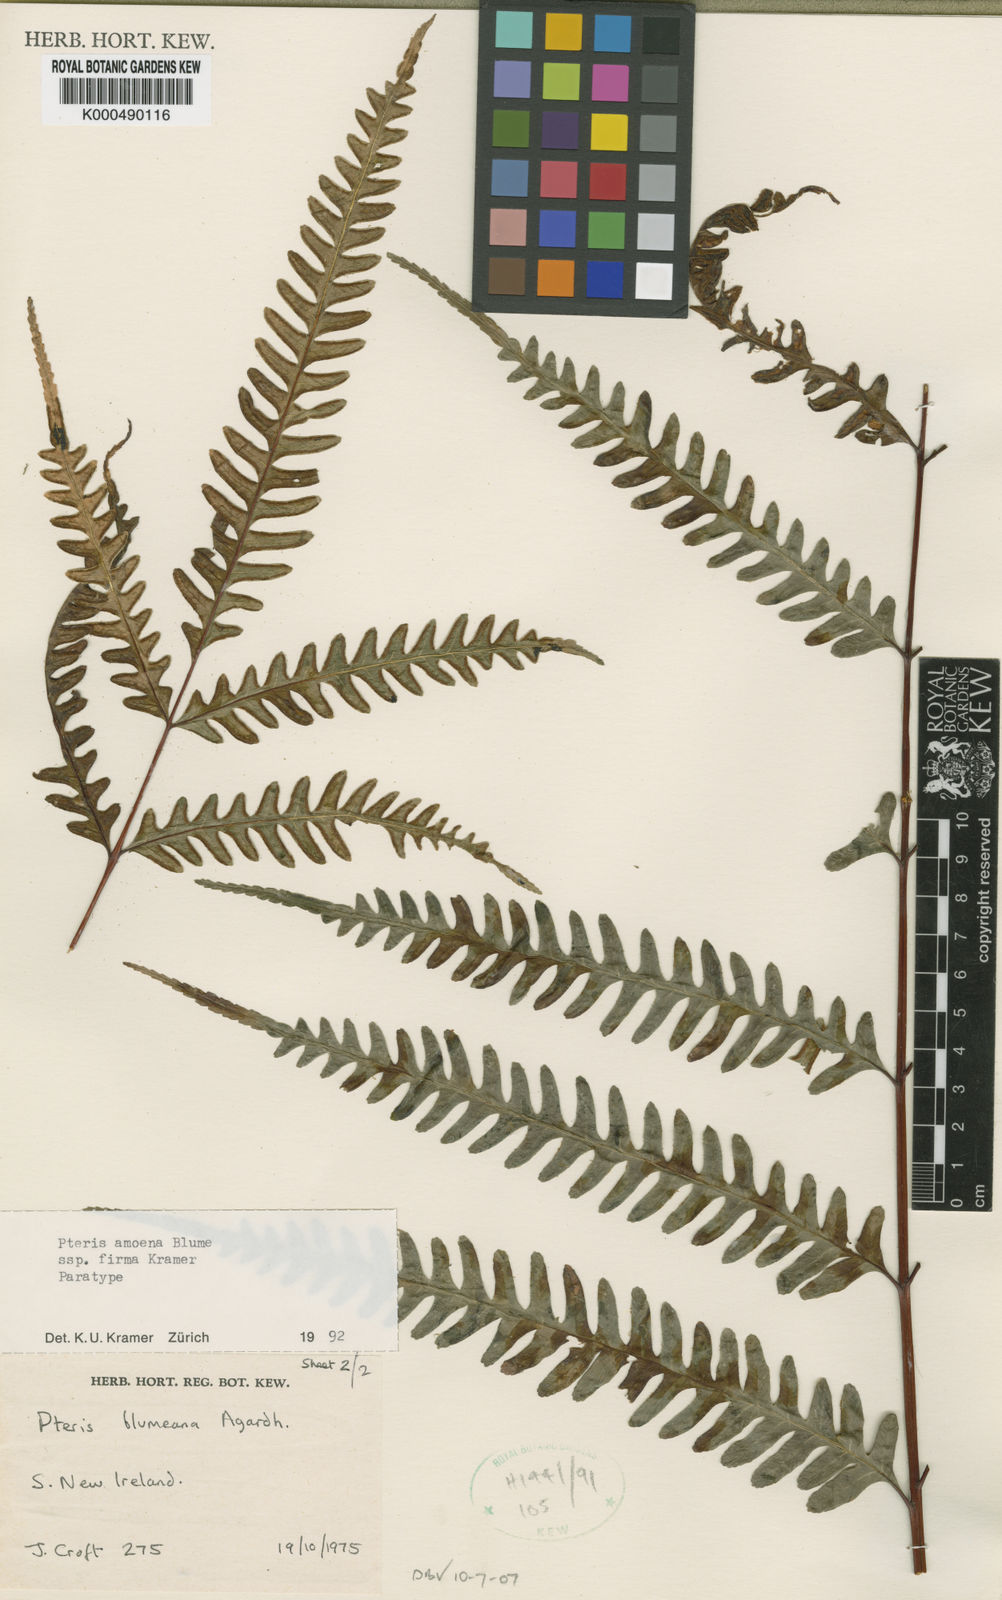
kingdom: Plantae
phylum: Tracheophyta
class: Polypodiopsida
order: Polypodiales
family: Pteridaceae
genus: Pteris
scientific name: Pteris amoena
